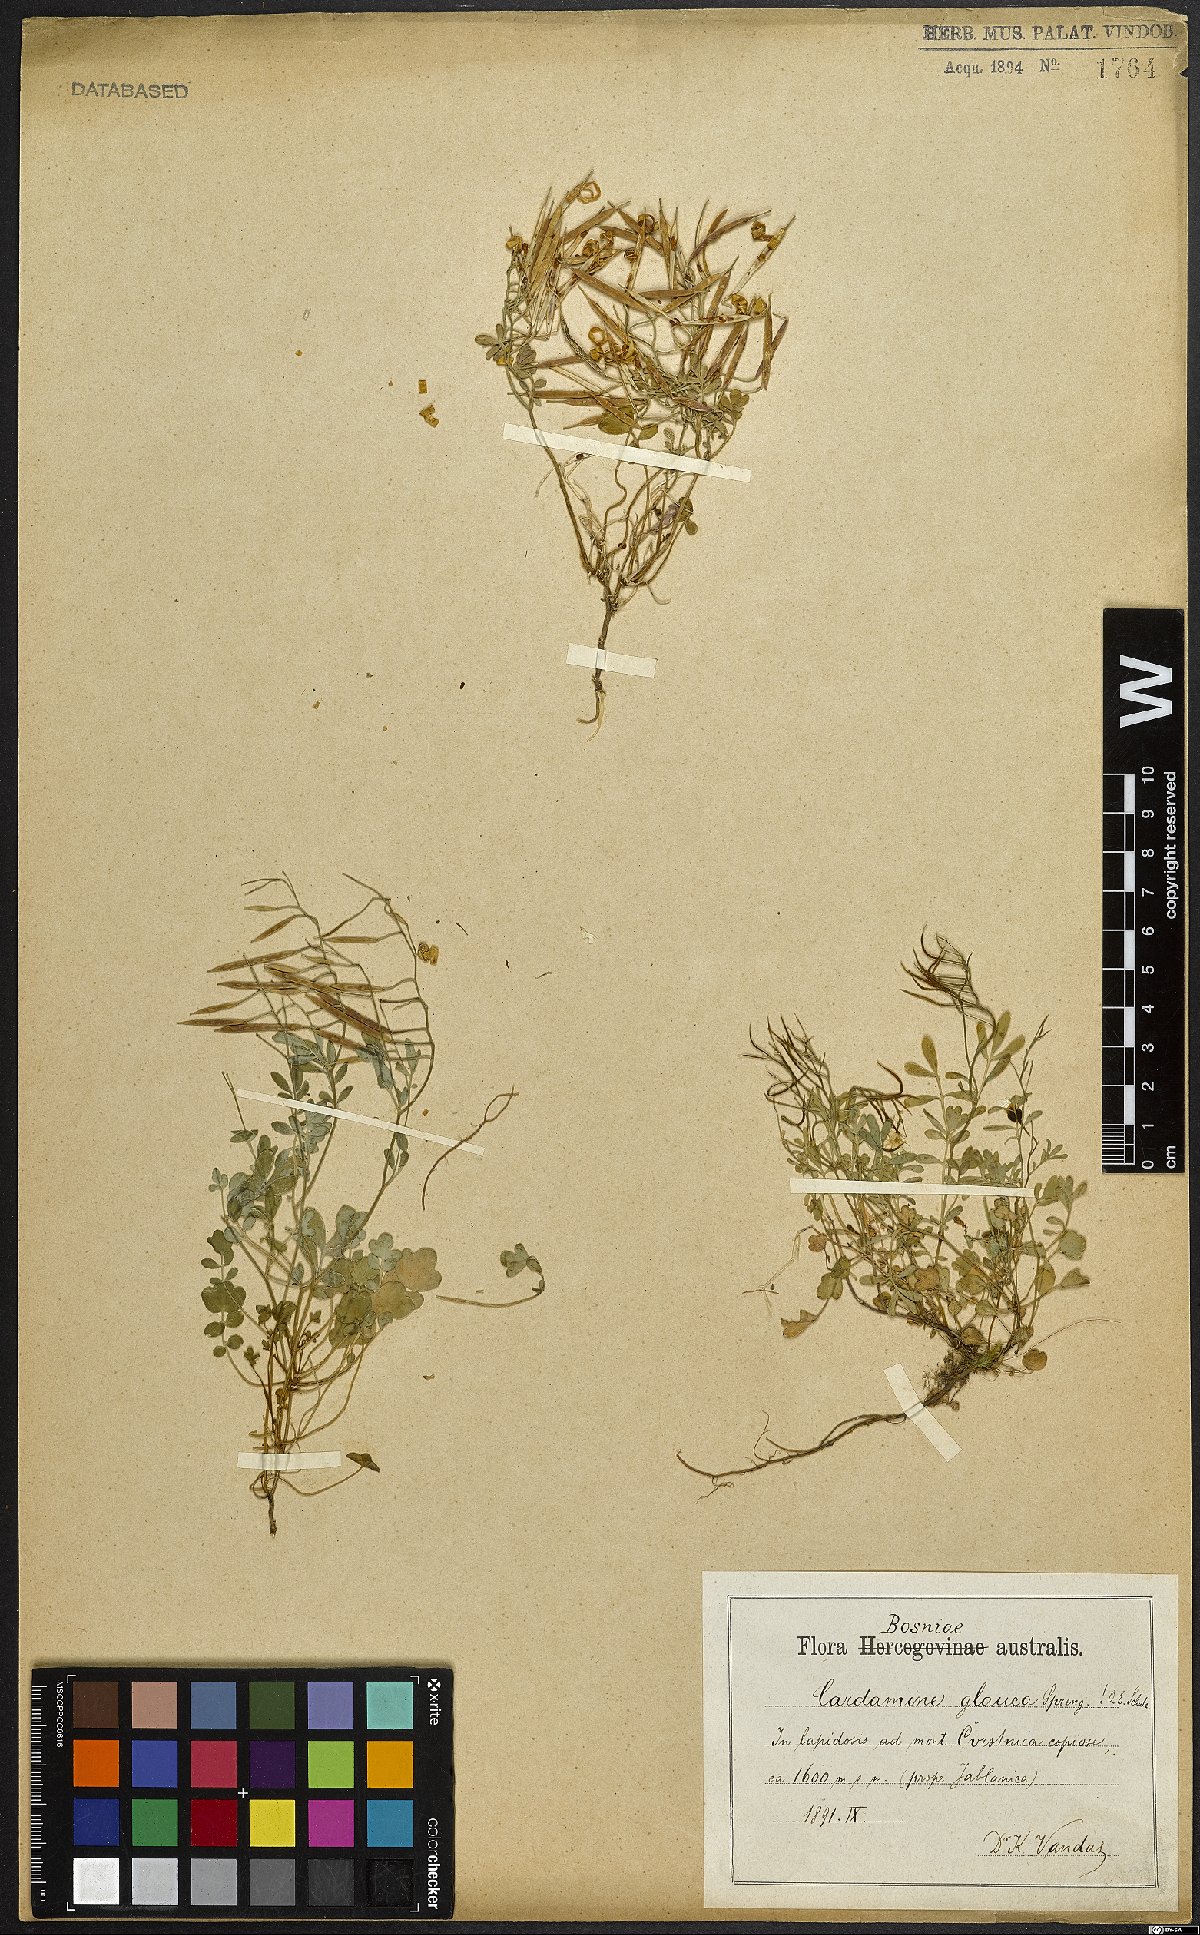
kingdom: Plantae
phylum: Tracheophyta
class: Magnoliopsida
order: Brassicales
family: Brassicaceae
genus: Cardamine
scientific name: Cardamine glauca
